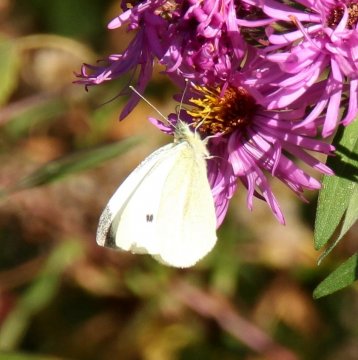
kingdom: Animalia
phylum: Arthropoda
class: Insecta
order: Lepidoptera
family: Pieridae
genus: Pieris
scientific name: Pieris rapae
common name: Cabbage White
